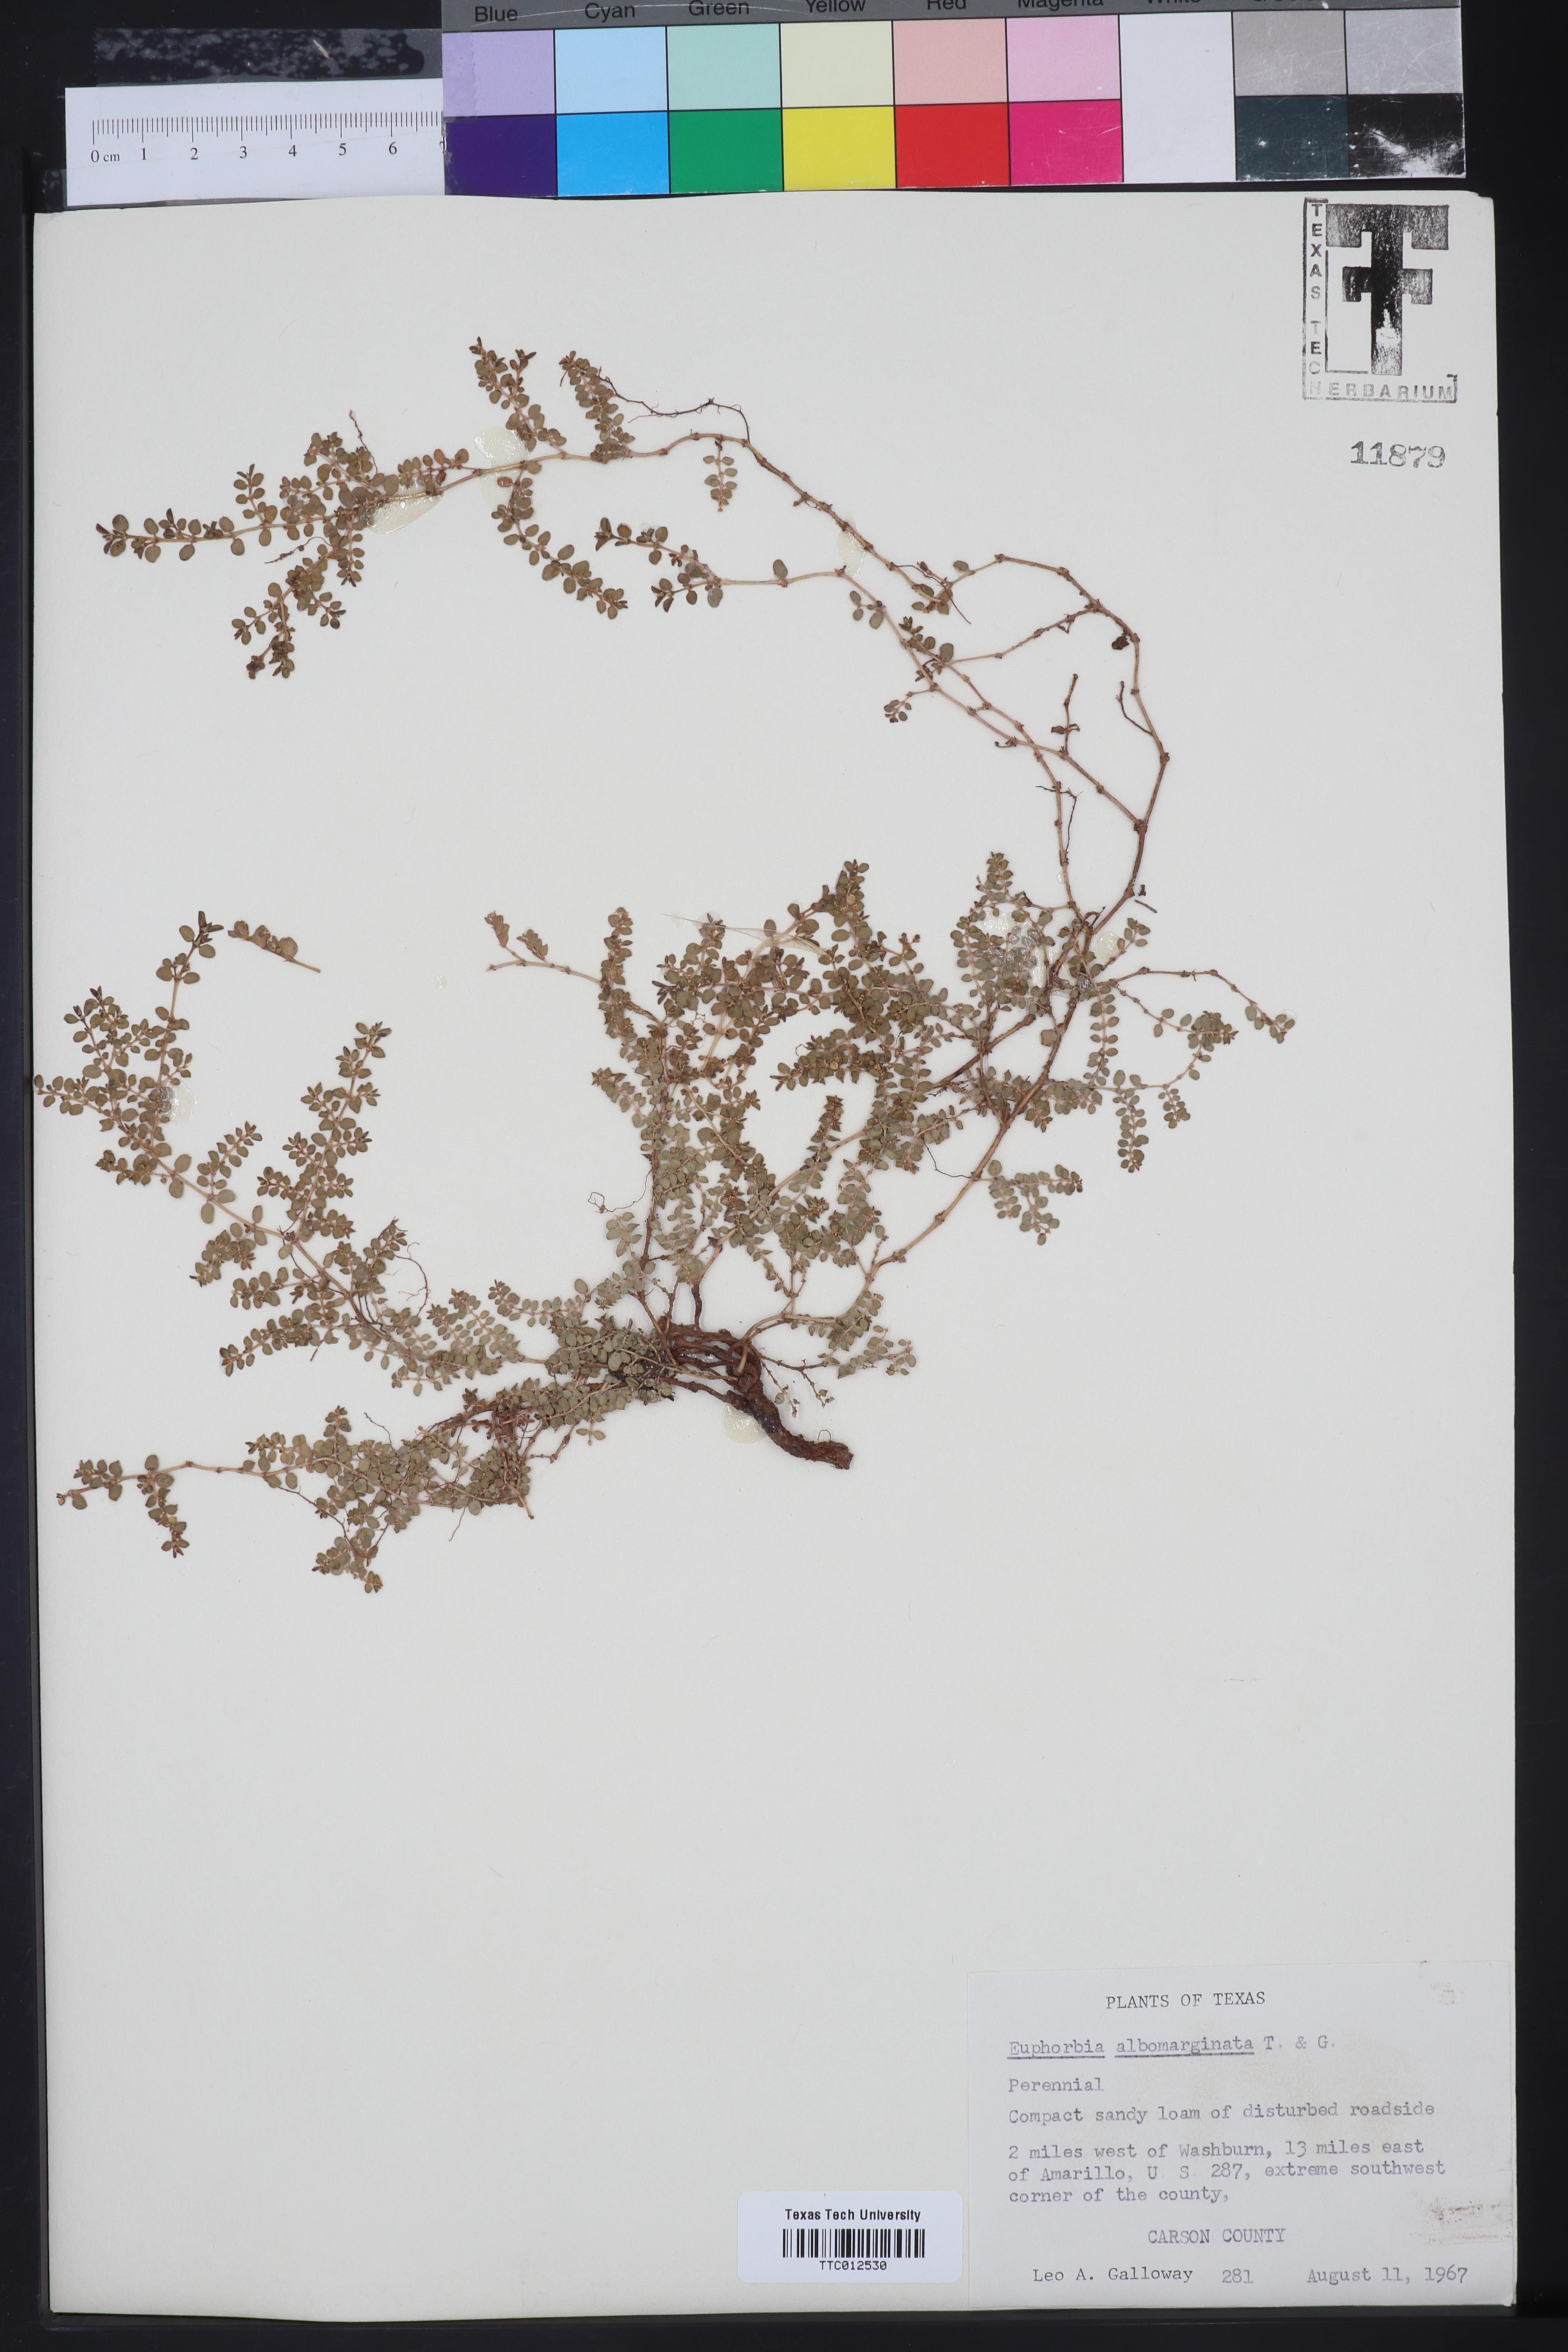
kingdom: Plantae
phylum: Tracheophyta
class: Magnoliopsida
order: Malpighiales
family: Euphorbiaceae
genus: Euphorbia
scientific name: Euphorbia albomarginata
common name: Whitemargin sandmat
